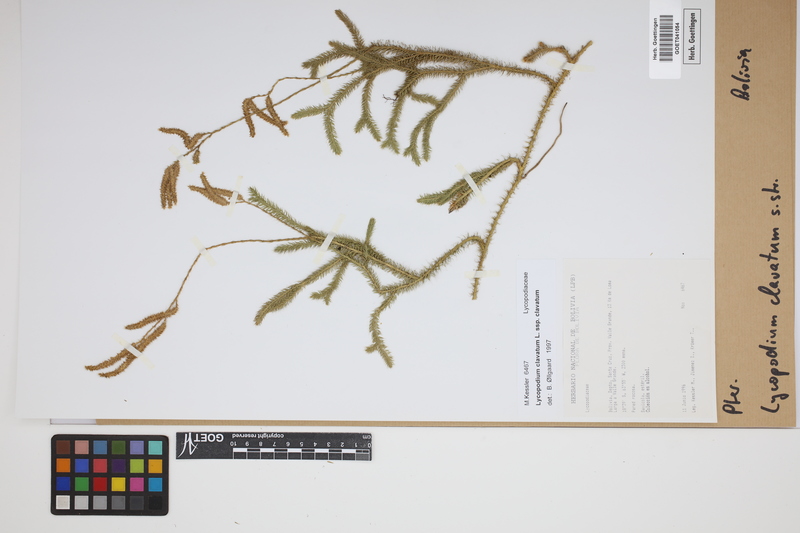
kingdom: Plantae
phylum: Tracheophyta
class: Lycopodiopsida
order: Lycopodiales
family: Lycopodiaceae
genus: Lycopodium
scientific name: Lycopodium clavatum
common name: Stag's-horn clubmoss
